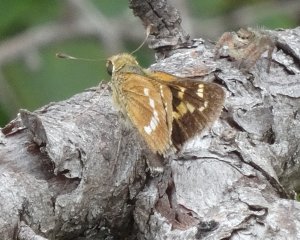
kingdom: Animalia
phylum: Arthropoda
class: Insecta
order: Lepidoptera
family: Hesperiidae
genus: Hesperia
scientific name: Hesperia leonardus
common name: Leonard's Skipper
